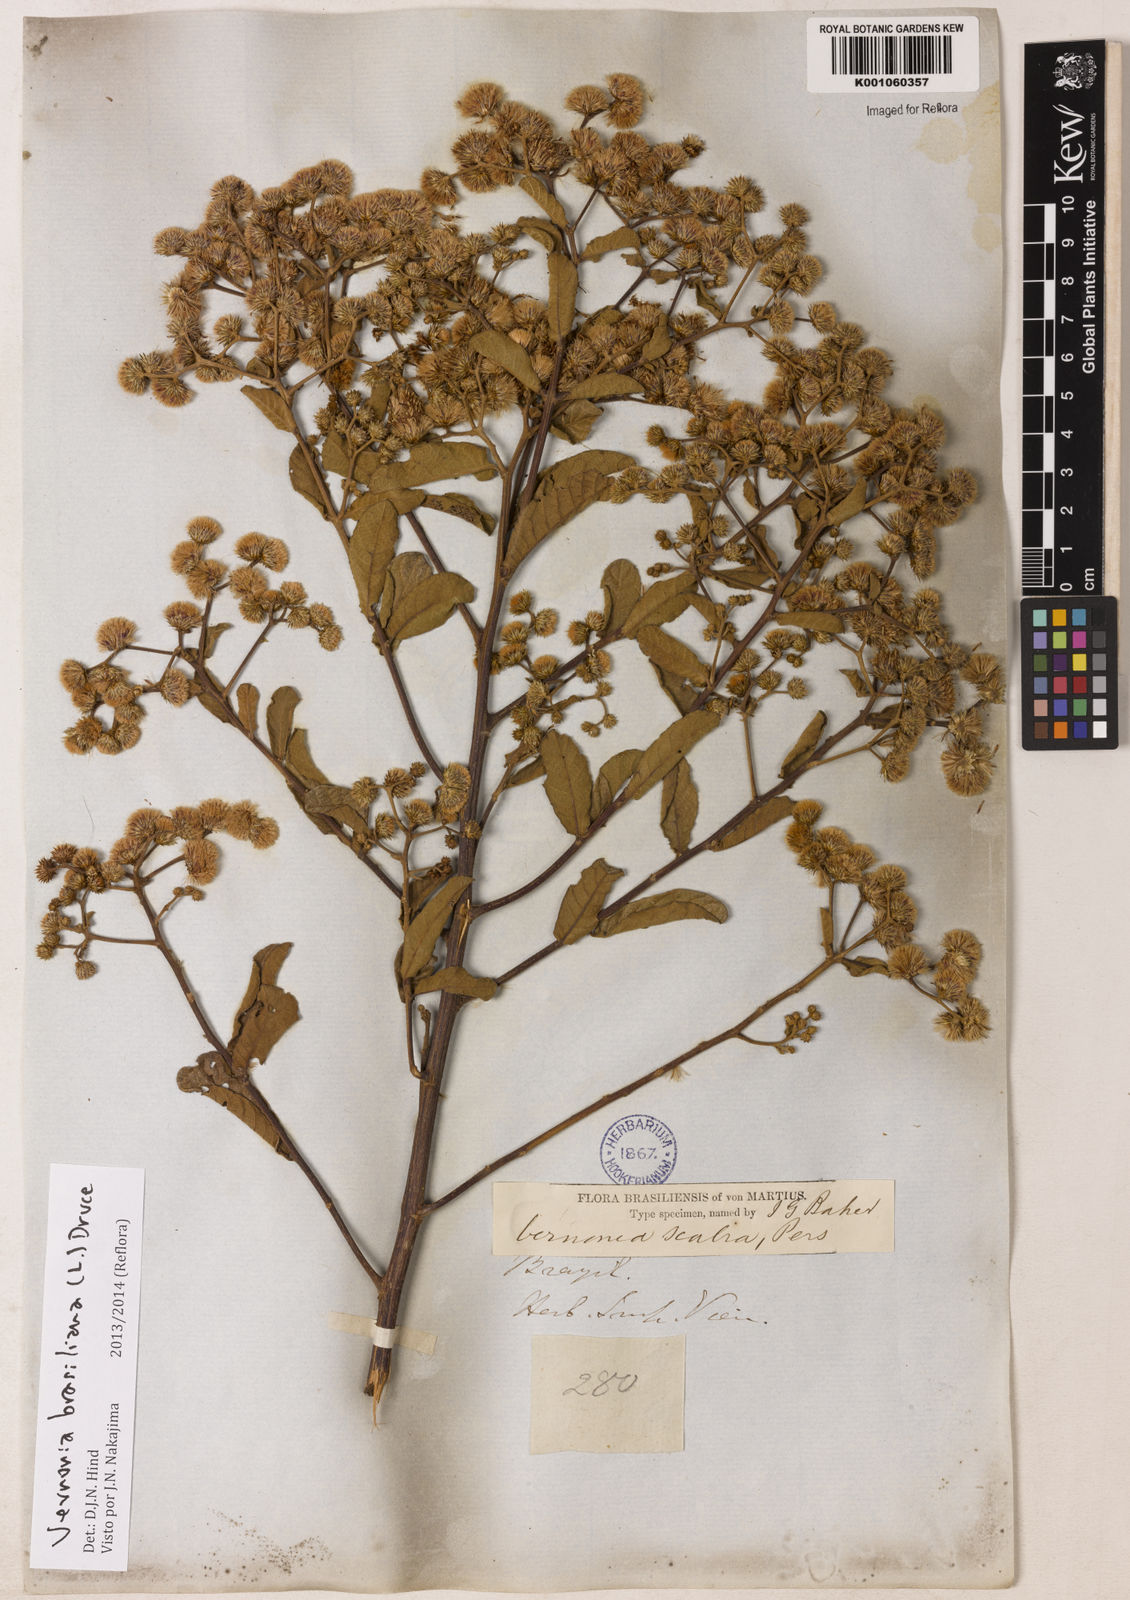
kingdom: Plantae
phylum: Tracheophyta
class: Magnoliopsida
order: Asterales
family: Asteraceae
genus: Vernonanthura
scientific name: Vernonanthura brasiliana
